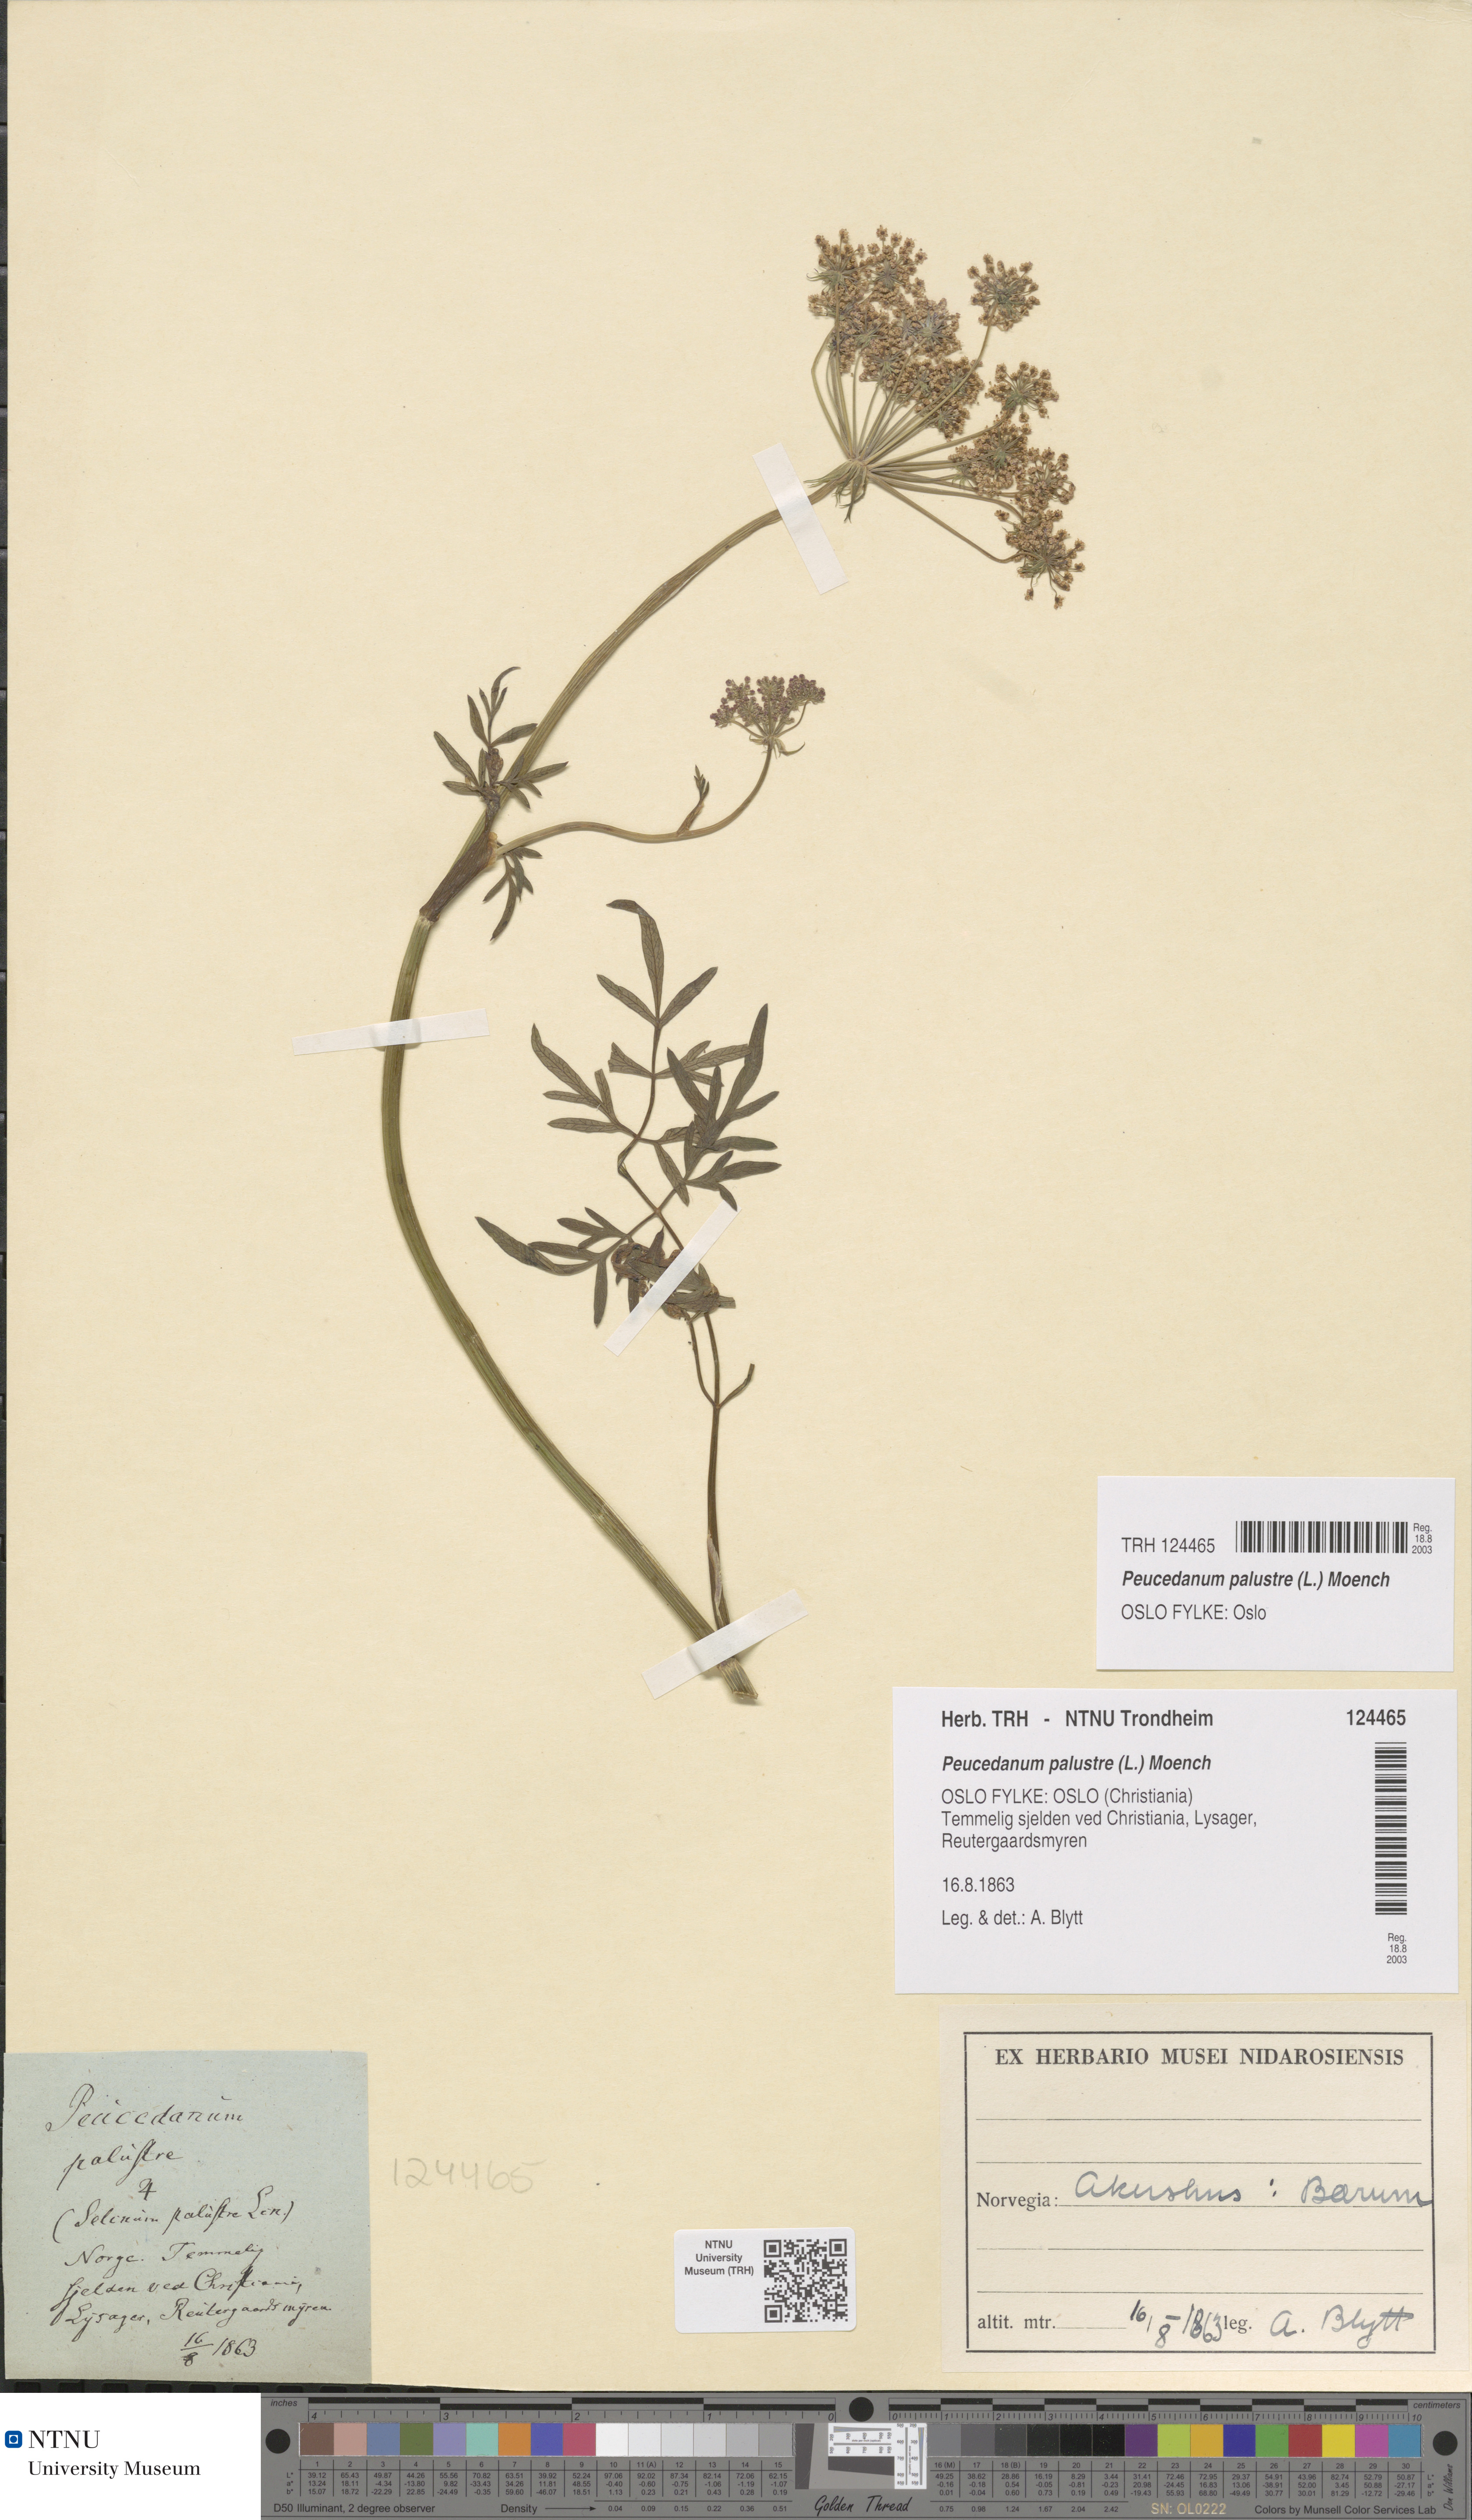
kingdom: Plantae
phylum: Tracheophyta
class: Magnoliopsida
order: Apiales
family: Apiaceae
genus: Thysselinum
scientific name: Thysselinum palustre
